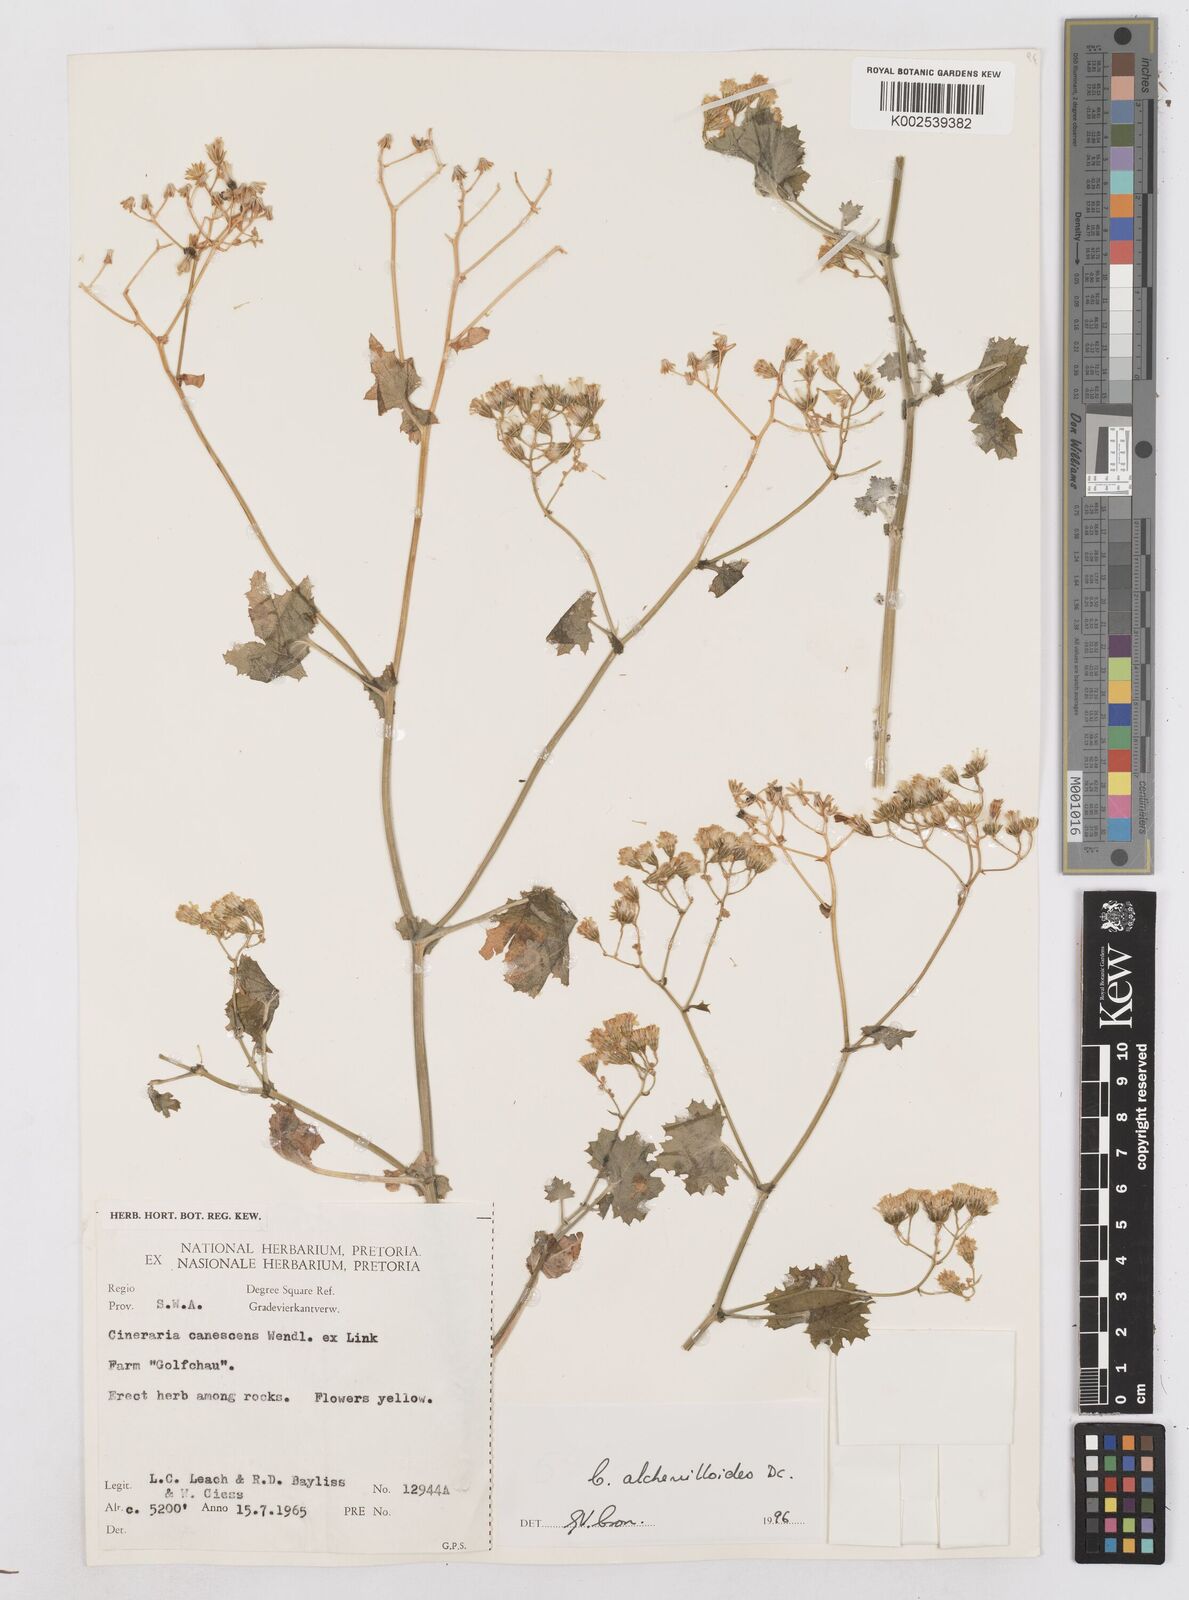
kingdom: Plantae
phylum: Tracheophyta
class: Magnoliopsida
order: Asterales
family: Asteraceae
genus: Cineraria
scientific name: Cineraria alchemilloides
